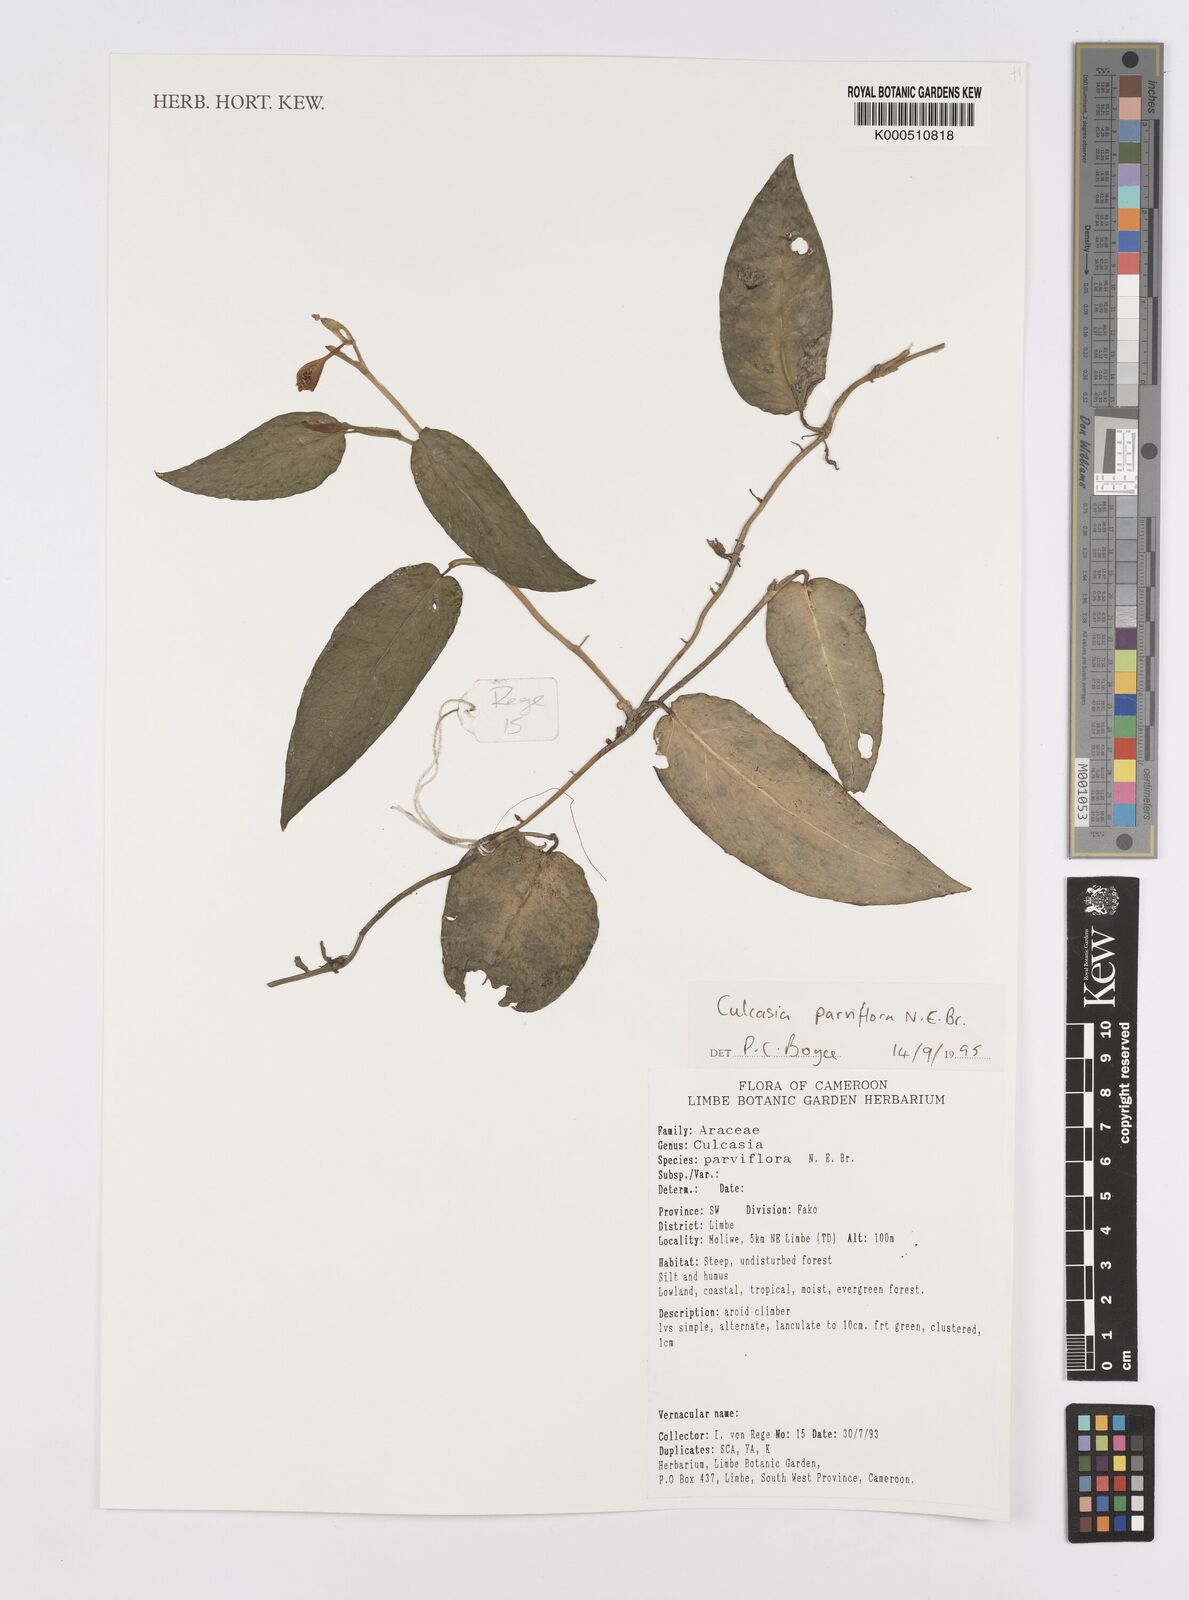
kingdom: Plantae
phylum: Tracheophyta
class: Liliopsida
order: Alismatales
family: Araceae
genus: Culcasia
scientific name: Culcasia parviflora
